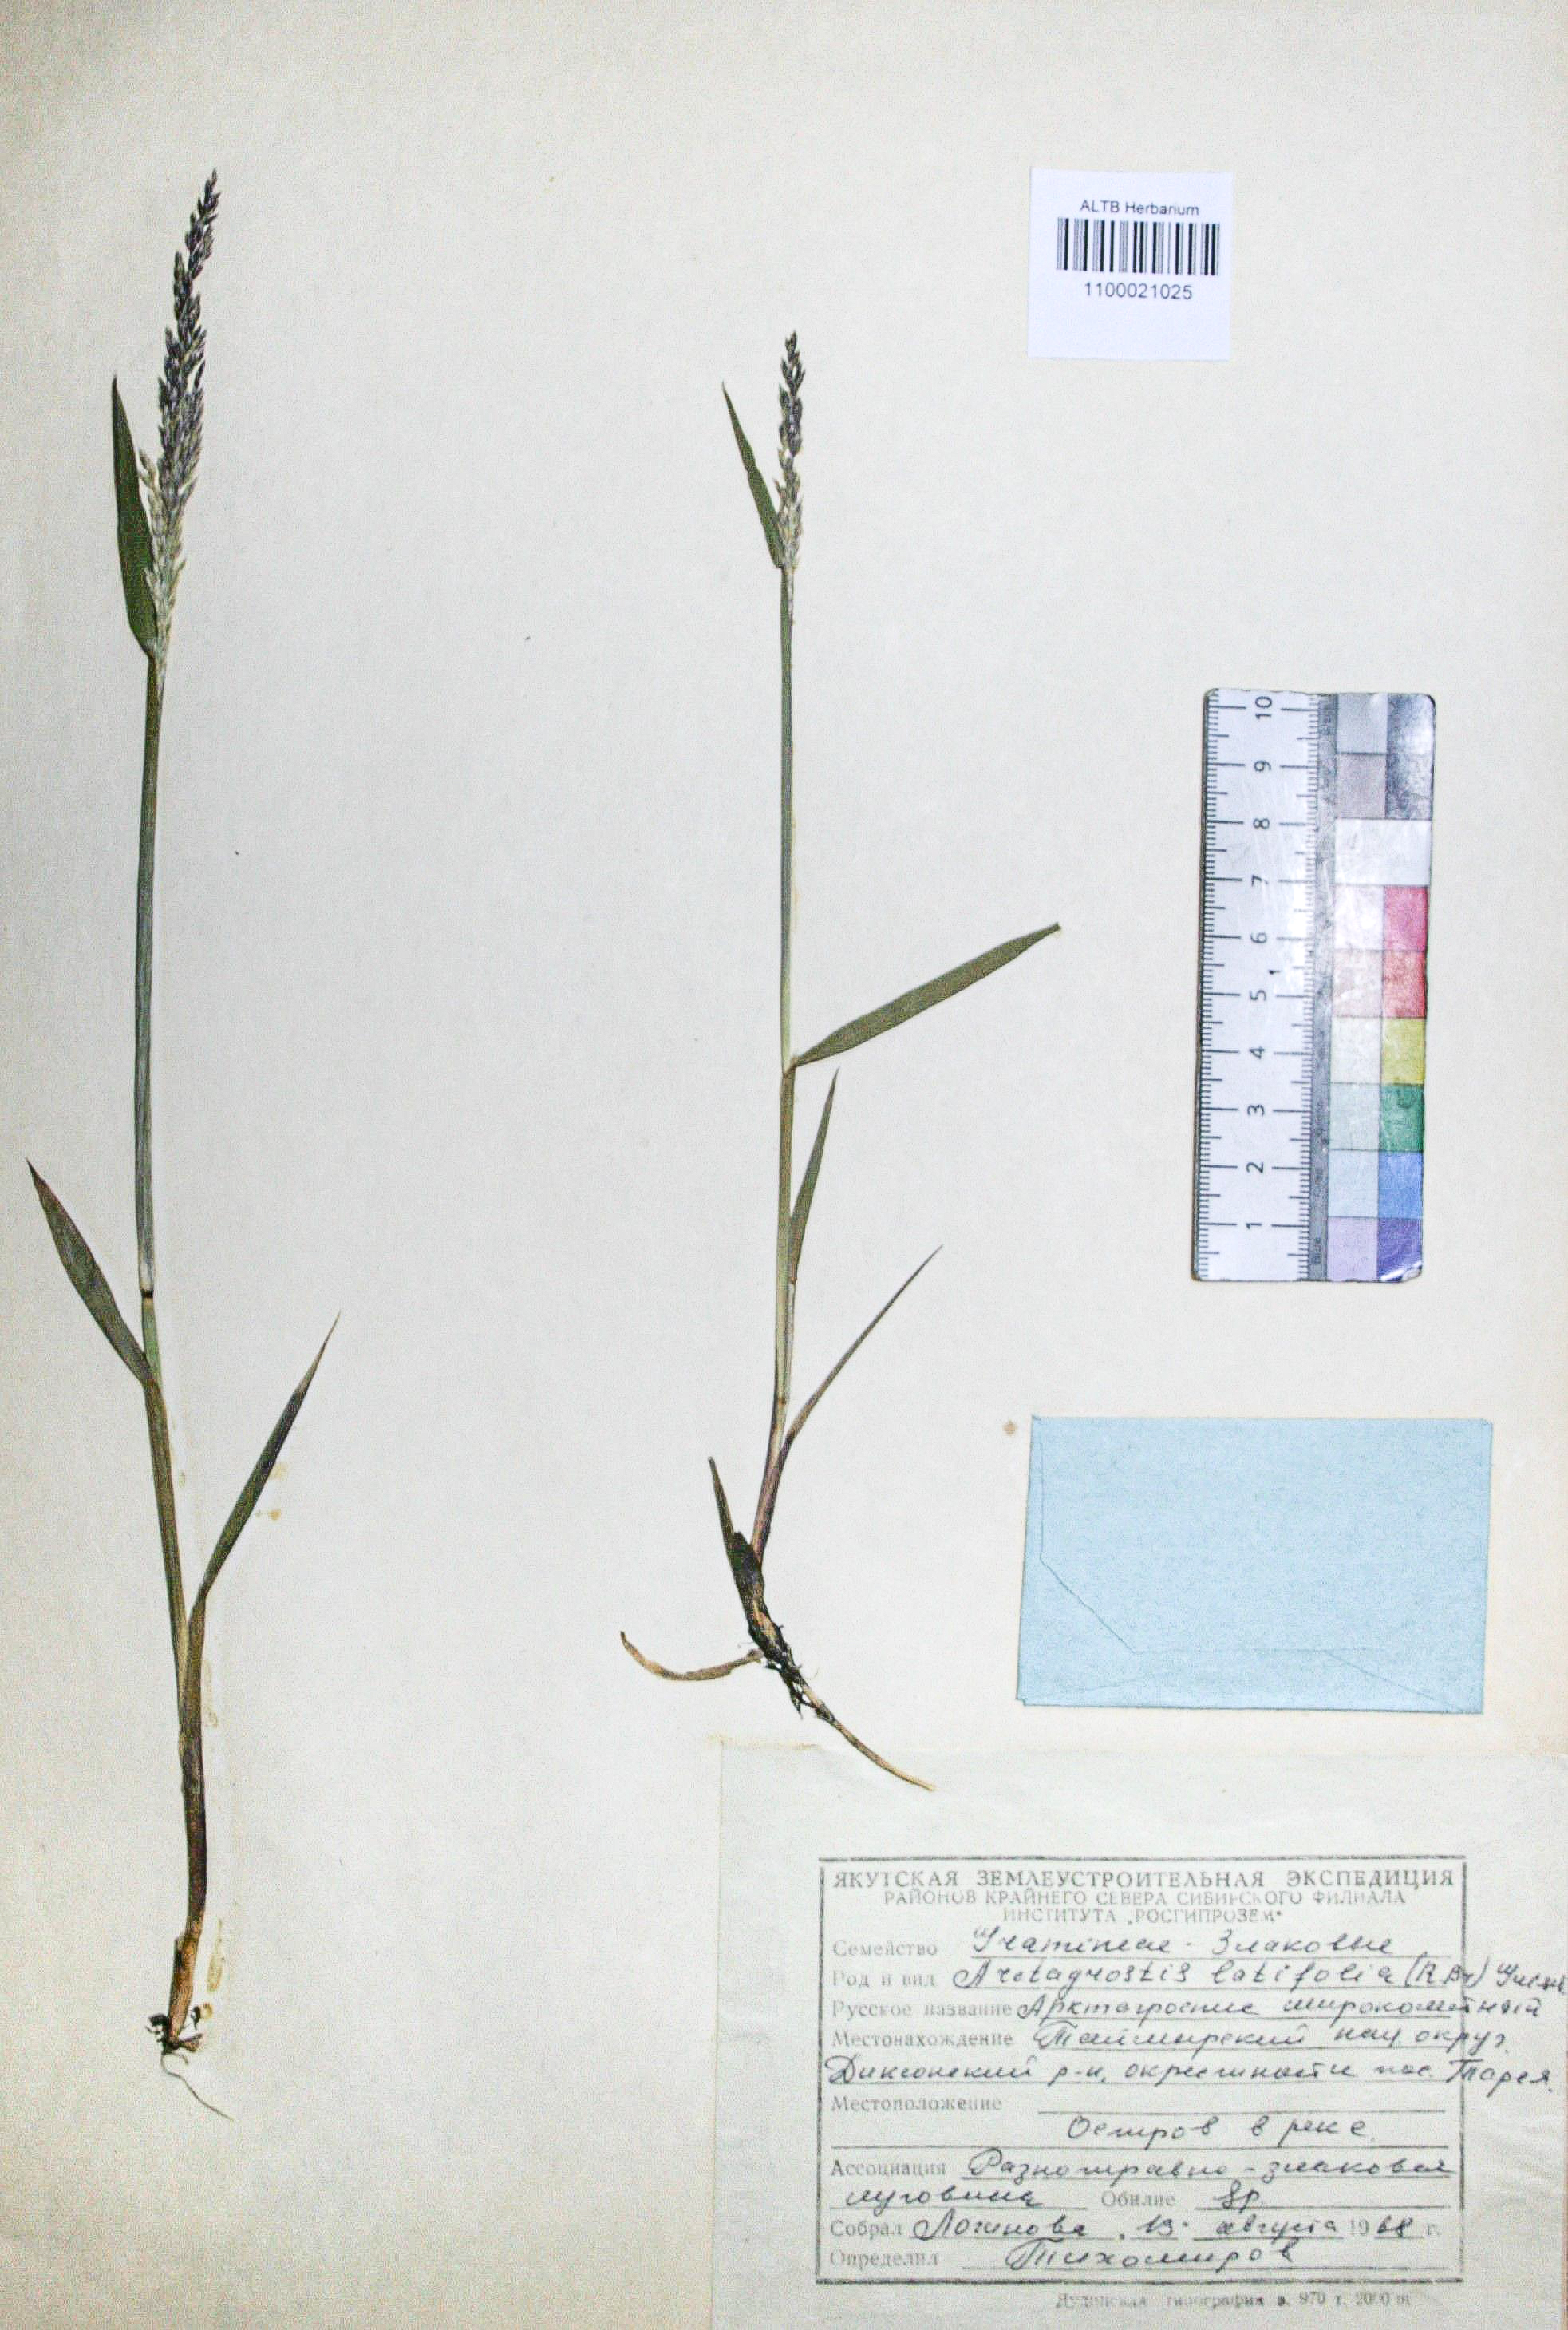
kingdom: Plantae
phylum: Tracheophyta
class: Liliopsida
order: Poales
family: Poaceae
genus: Arctagrostis
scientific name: Arctagrostis latifolia
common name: Arctic grass
